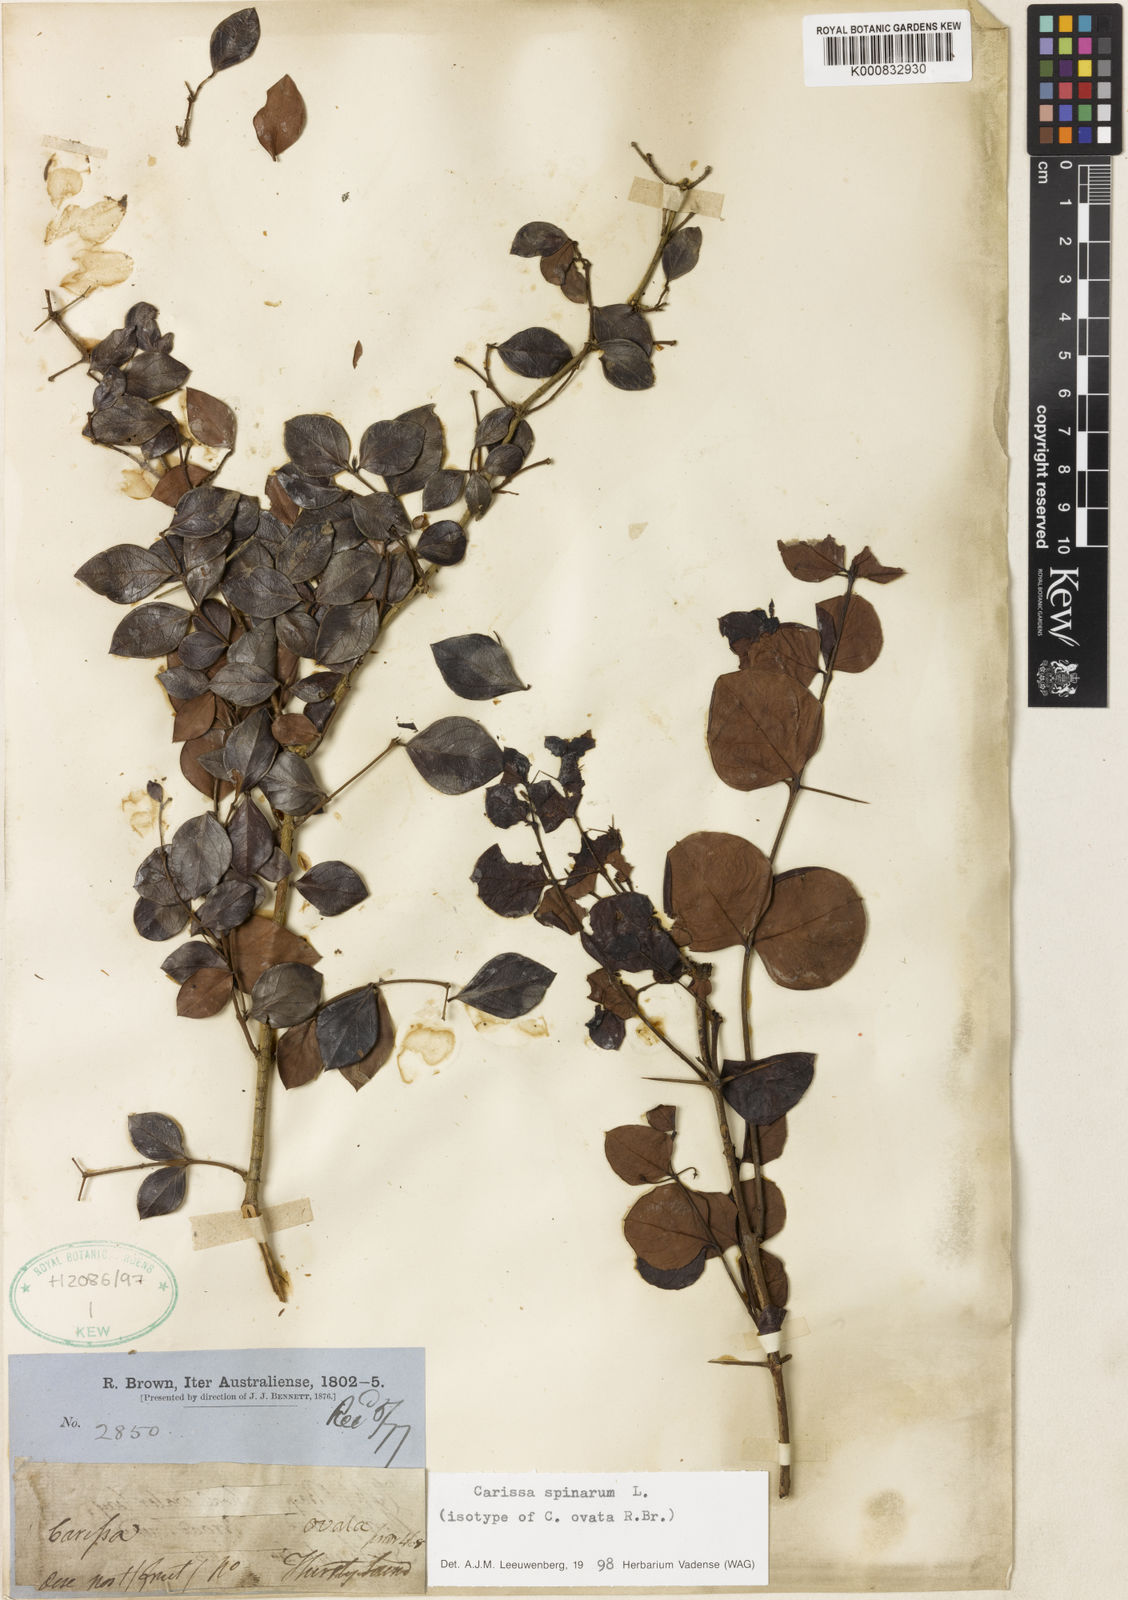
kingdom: Plantae
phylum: Tracheophyta
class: Magnoliopsida
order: Gentianales
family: Apocynaceae
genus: Carissa
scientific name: Carissa spinarum
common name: Egyptian carissa
